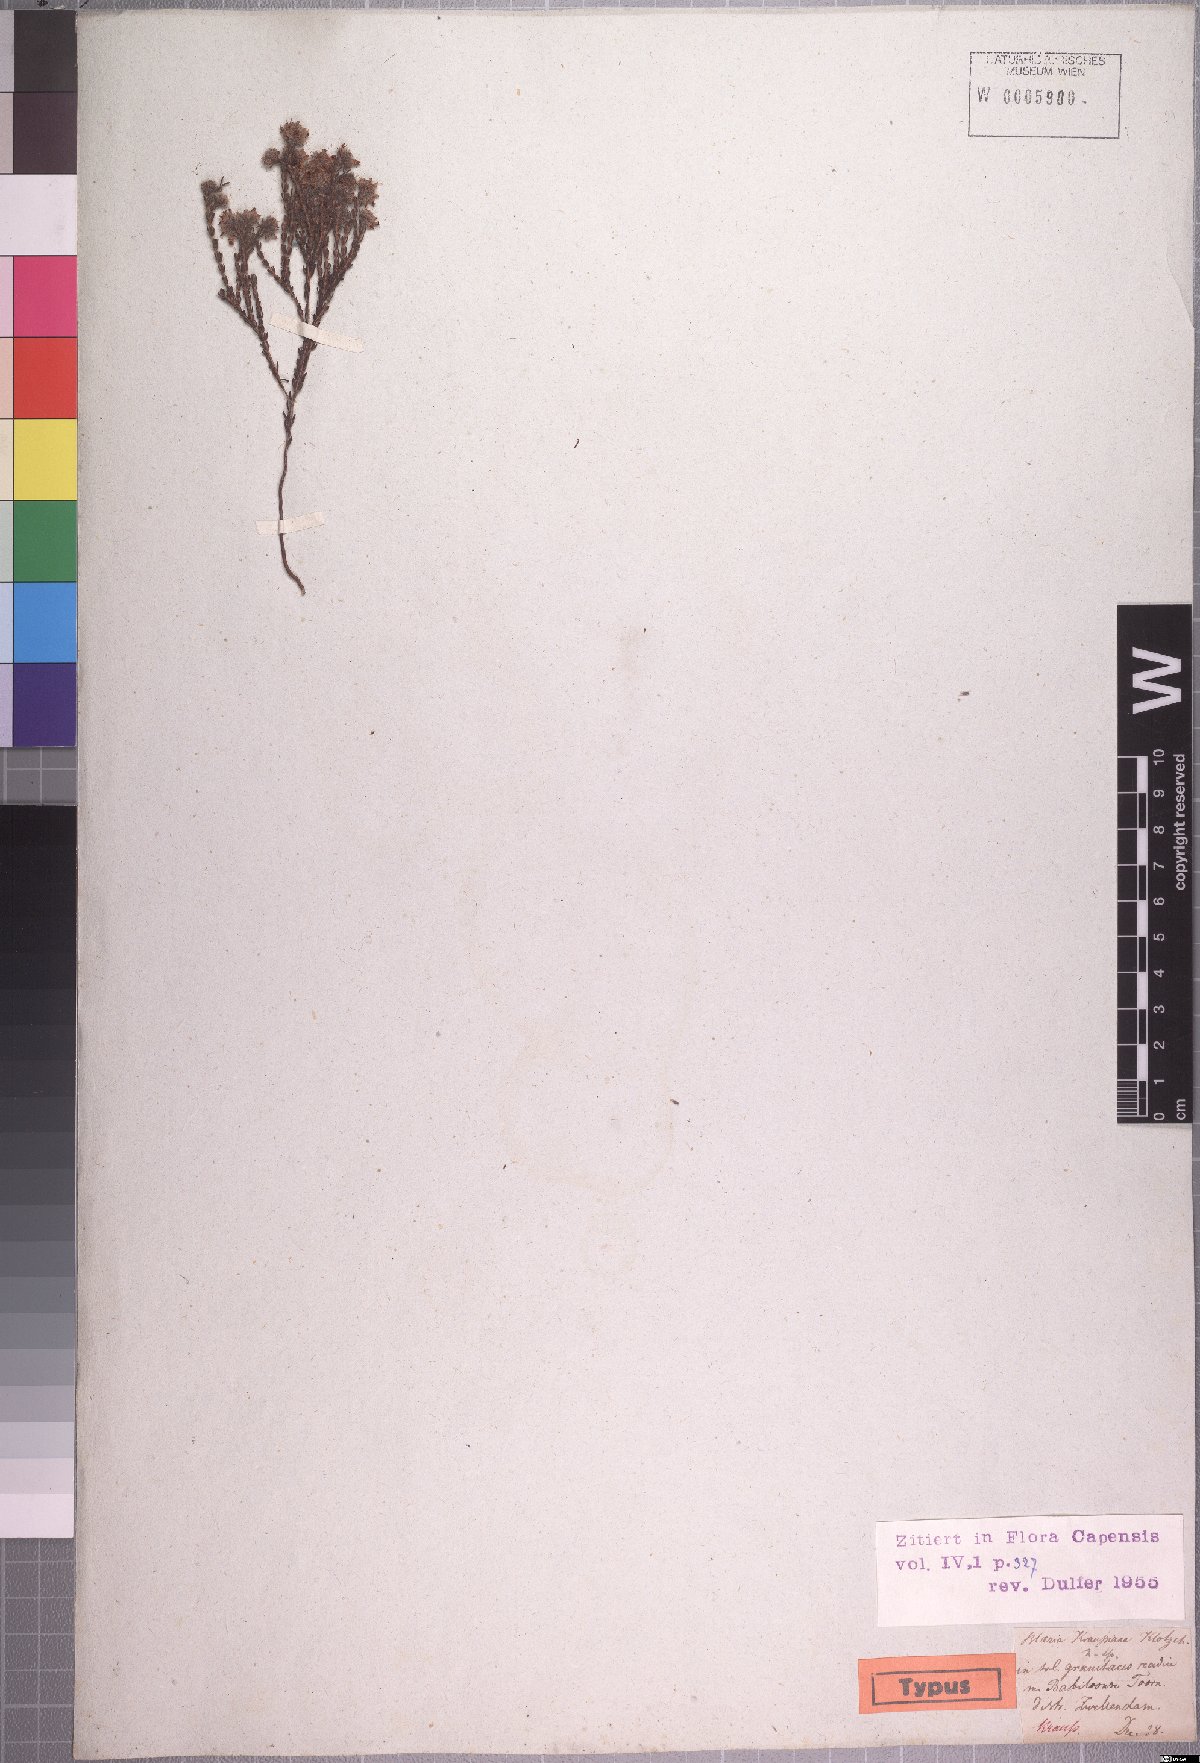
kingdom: Plantae
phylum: Tracheophyta
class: Magnoliopsida
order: Ericales
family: Ericaceae
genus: Erica
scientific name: Erica russakiana
